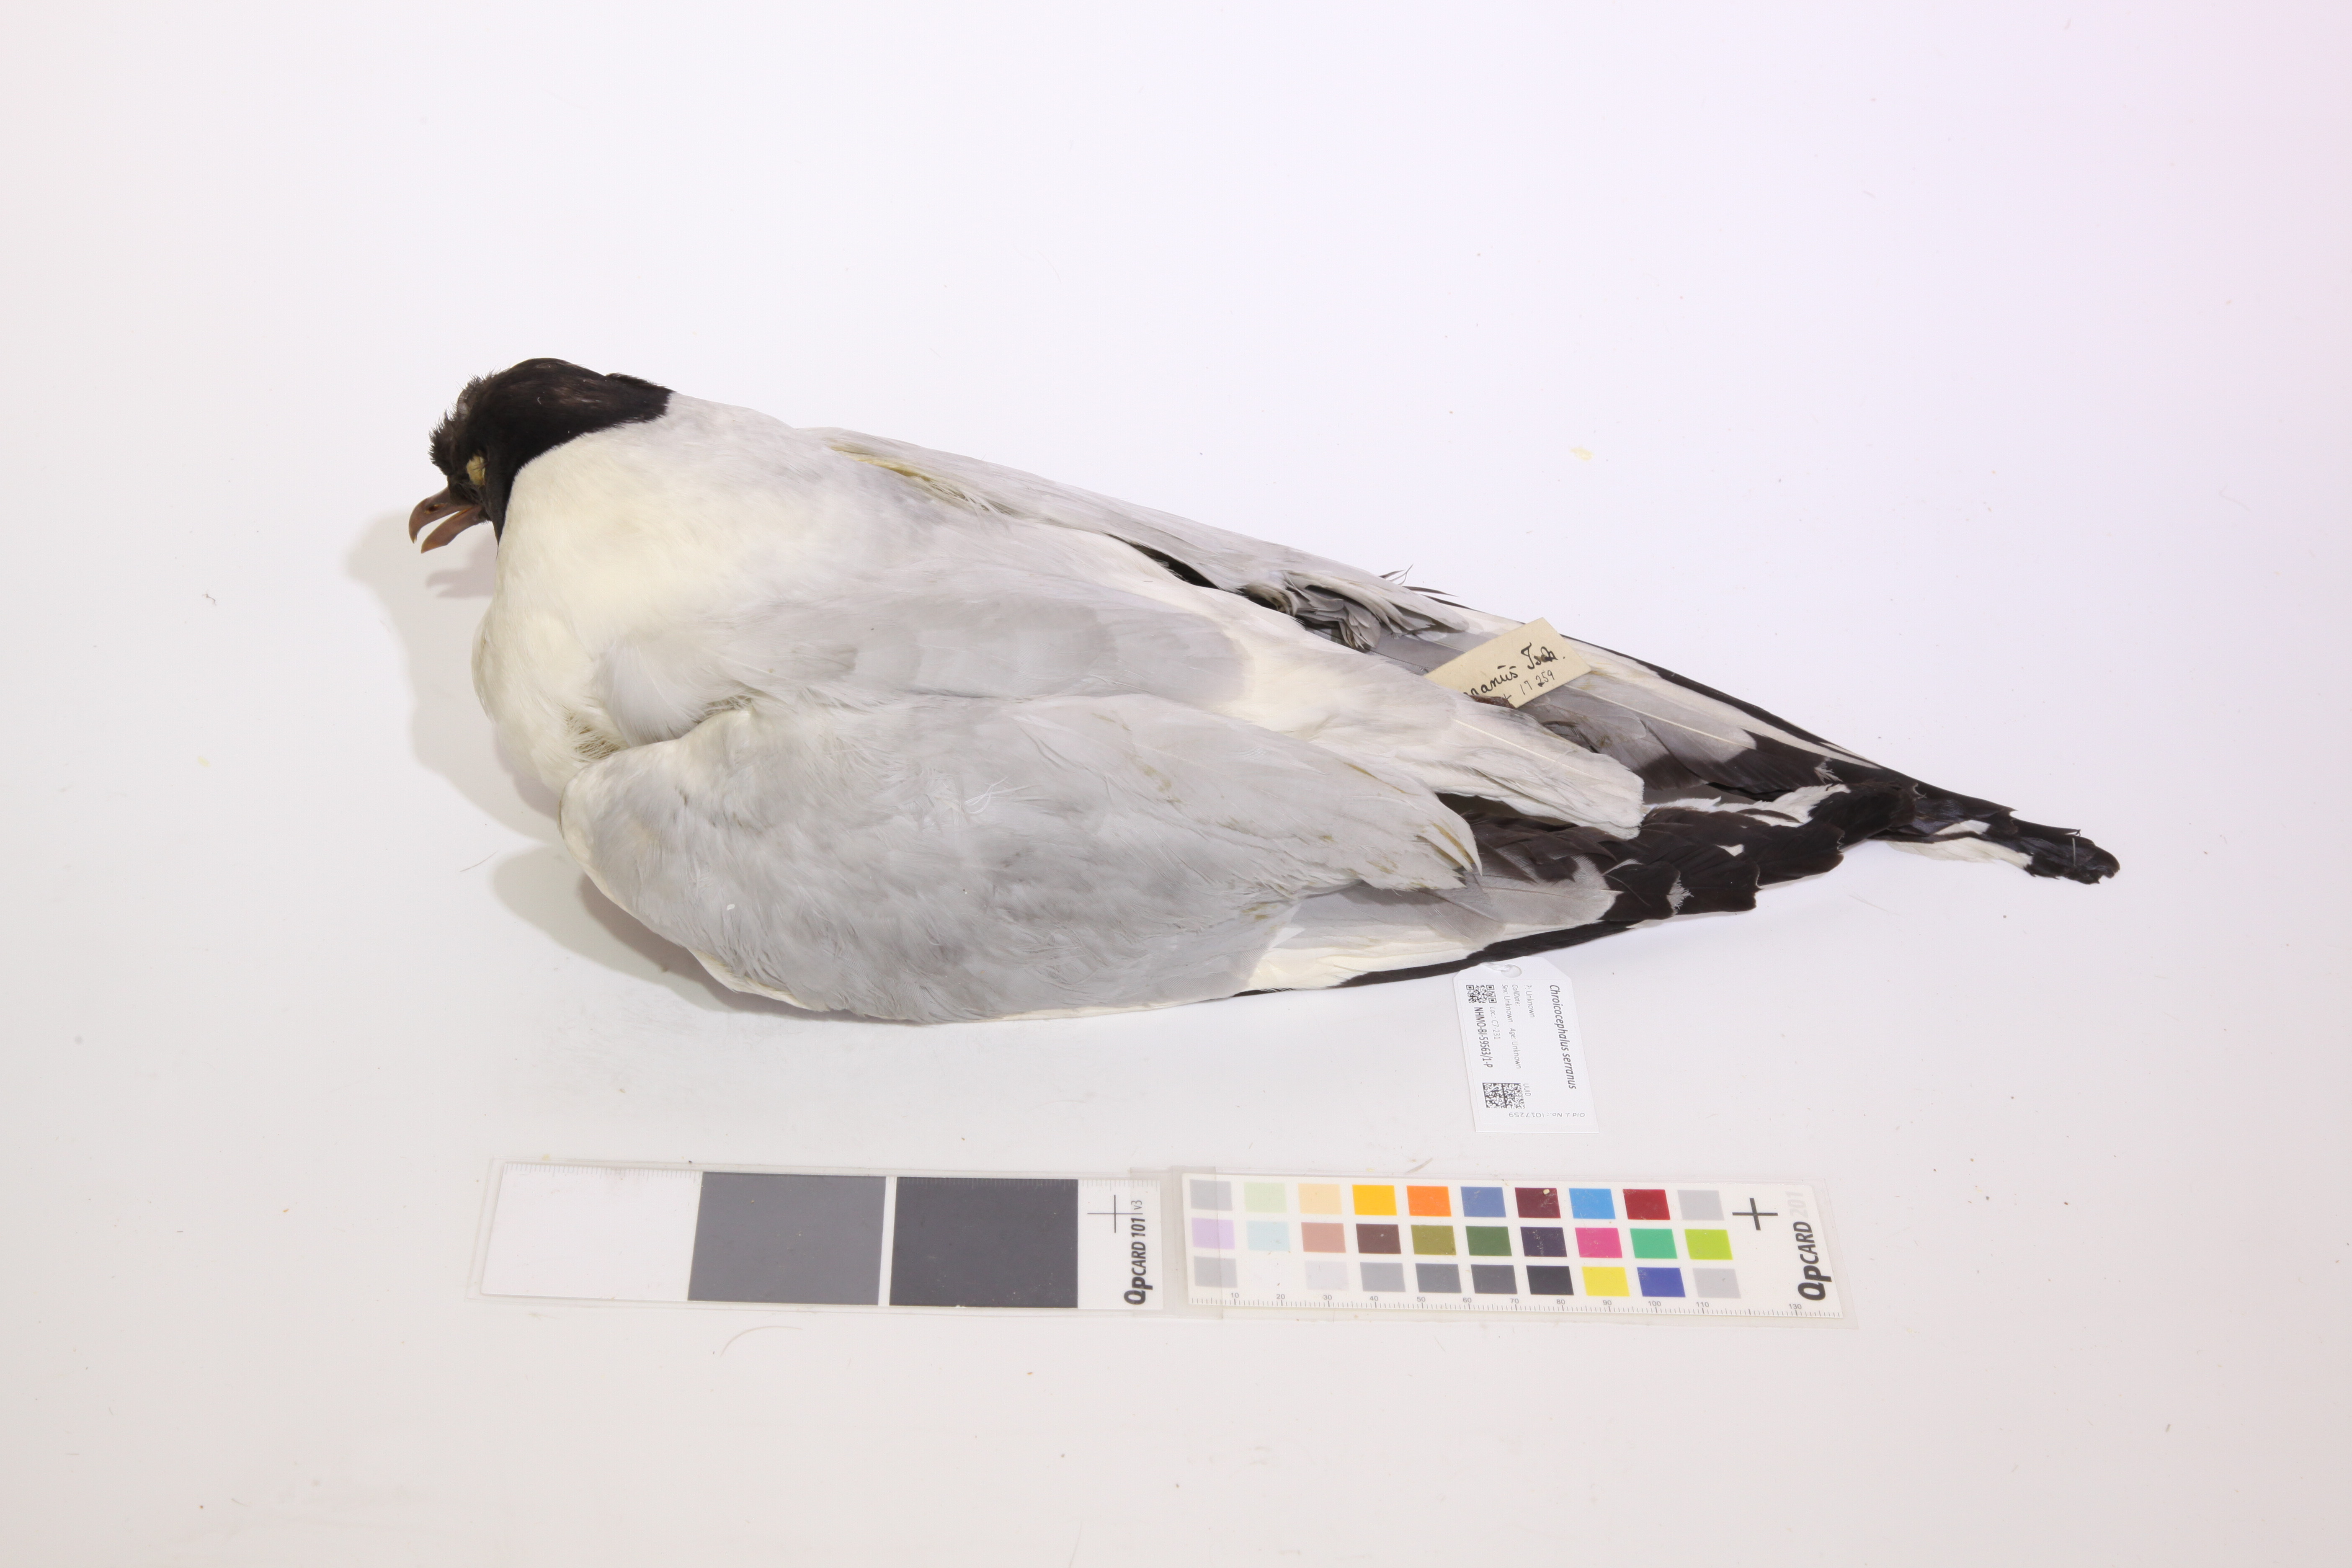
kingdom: Animalia
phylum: Chordata
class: Aves
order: Charadriiformes
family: Laridae
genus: Chroicocephalus
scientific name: Chroicocephalus serranus
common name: Andean gull
